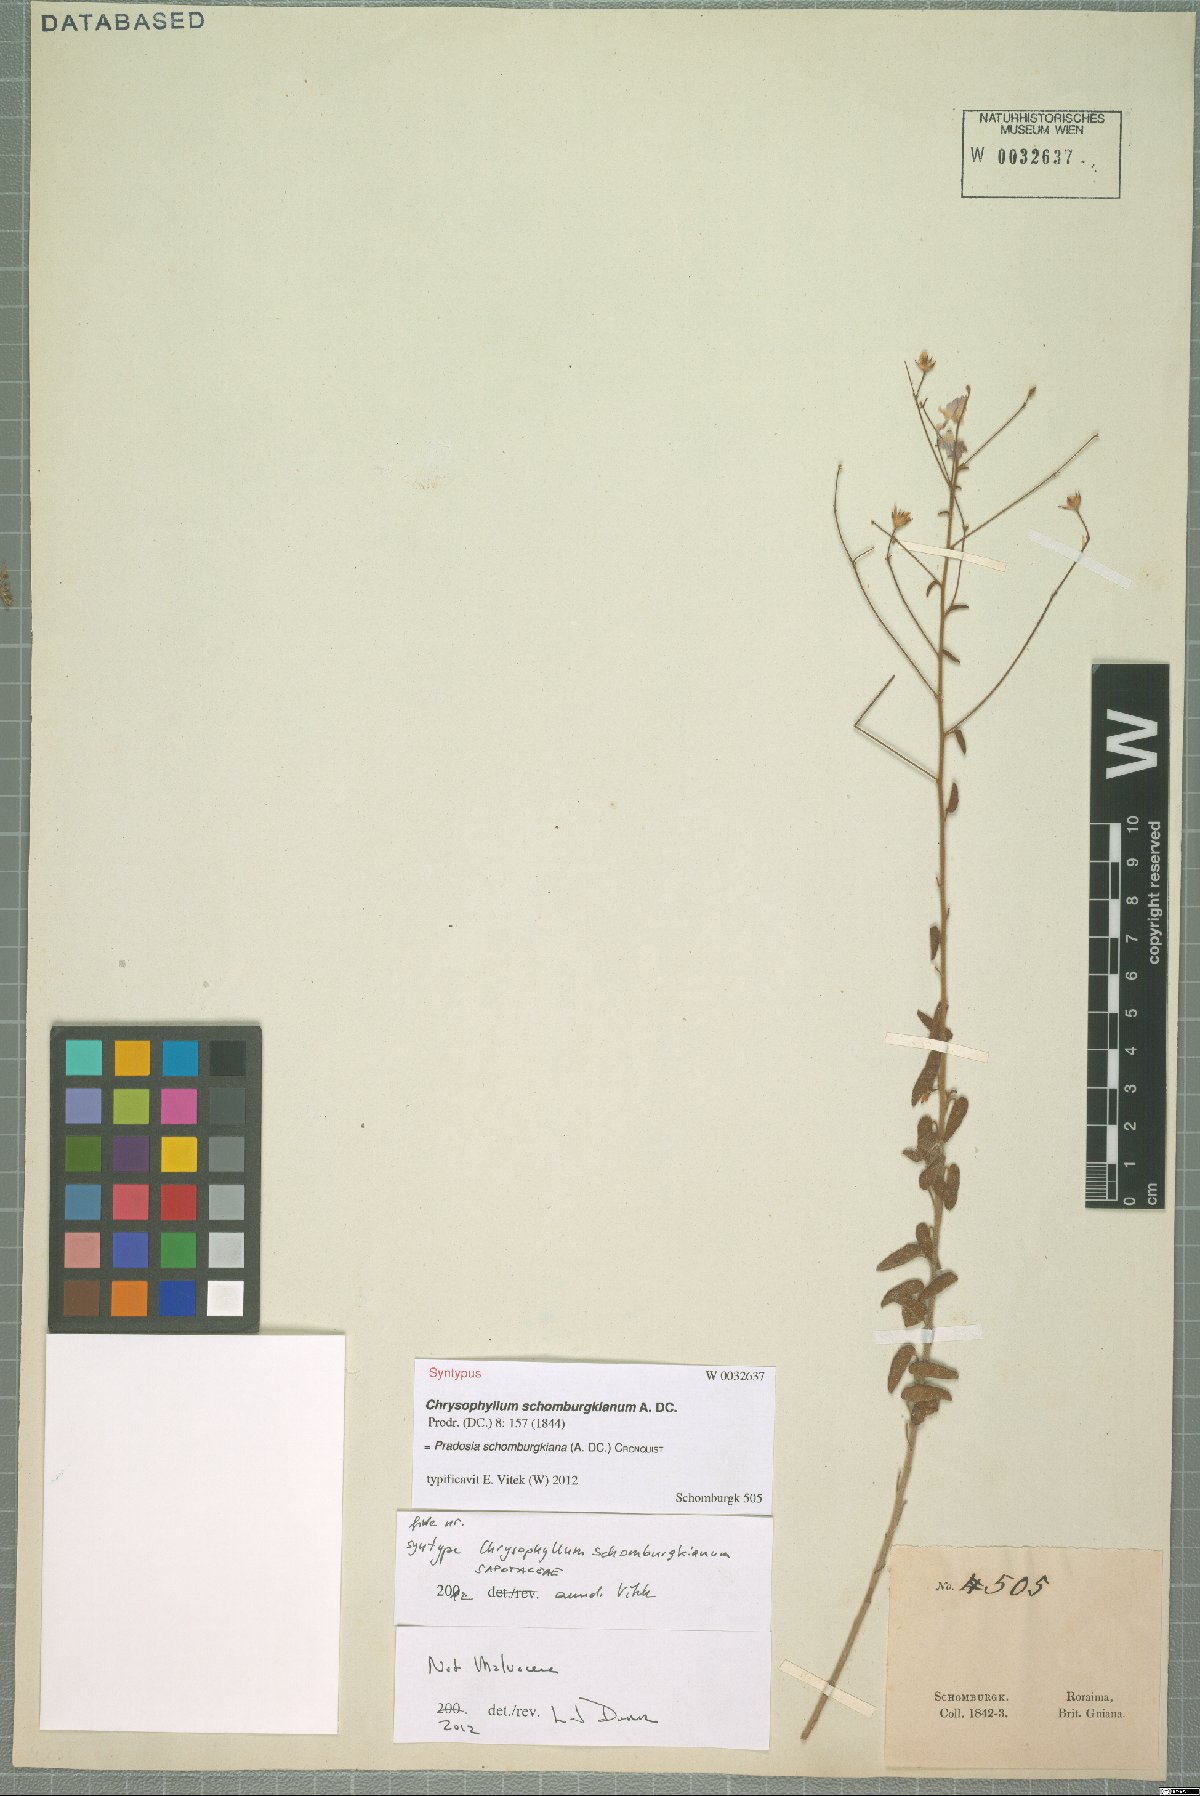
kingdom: Plantae
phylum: Tracheophyta
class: Magnoliopsida
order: Ericales
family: Sapotaceae
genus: Pradosia
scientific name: Pradosia schomburgkiana
